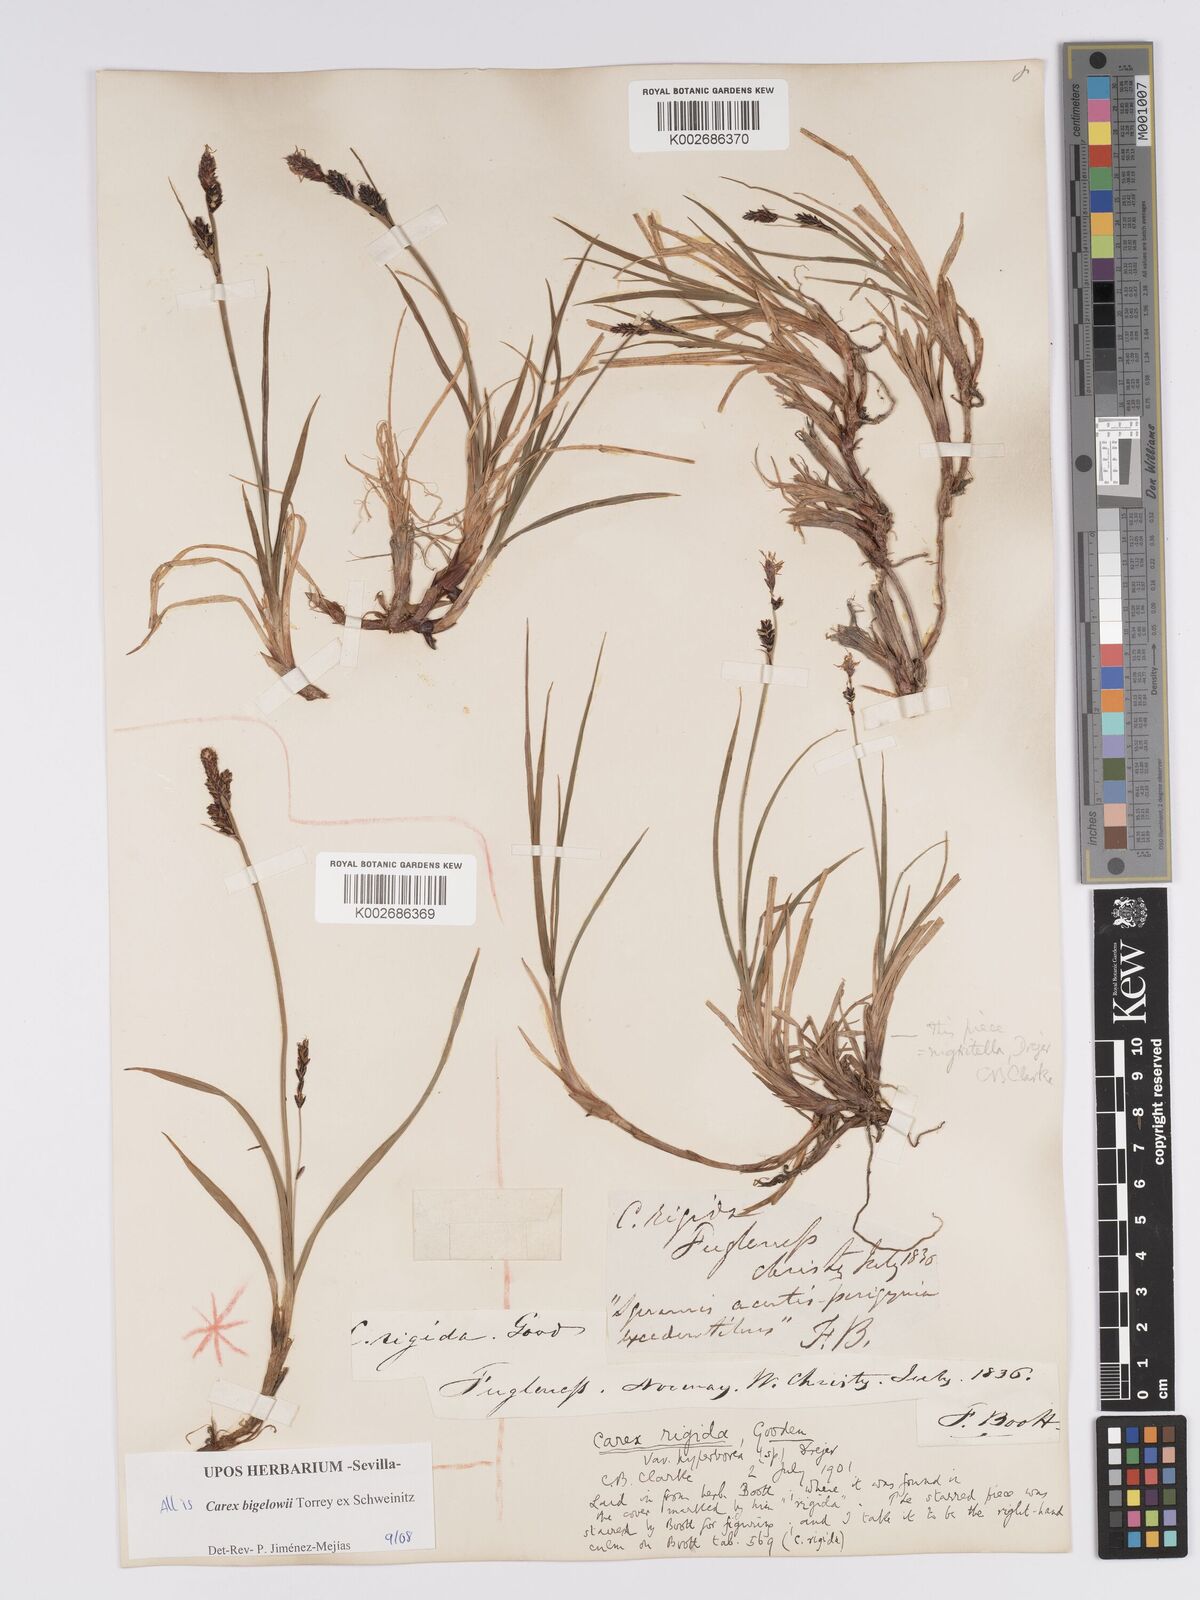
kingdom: Plantae
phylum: Tracheophyta
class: Liliopsida
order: Poales
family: Cyperaceae
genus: Carex
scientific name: Carex bigelowii
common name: Stiff sedge
